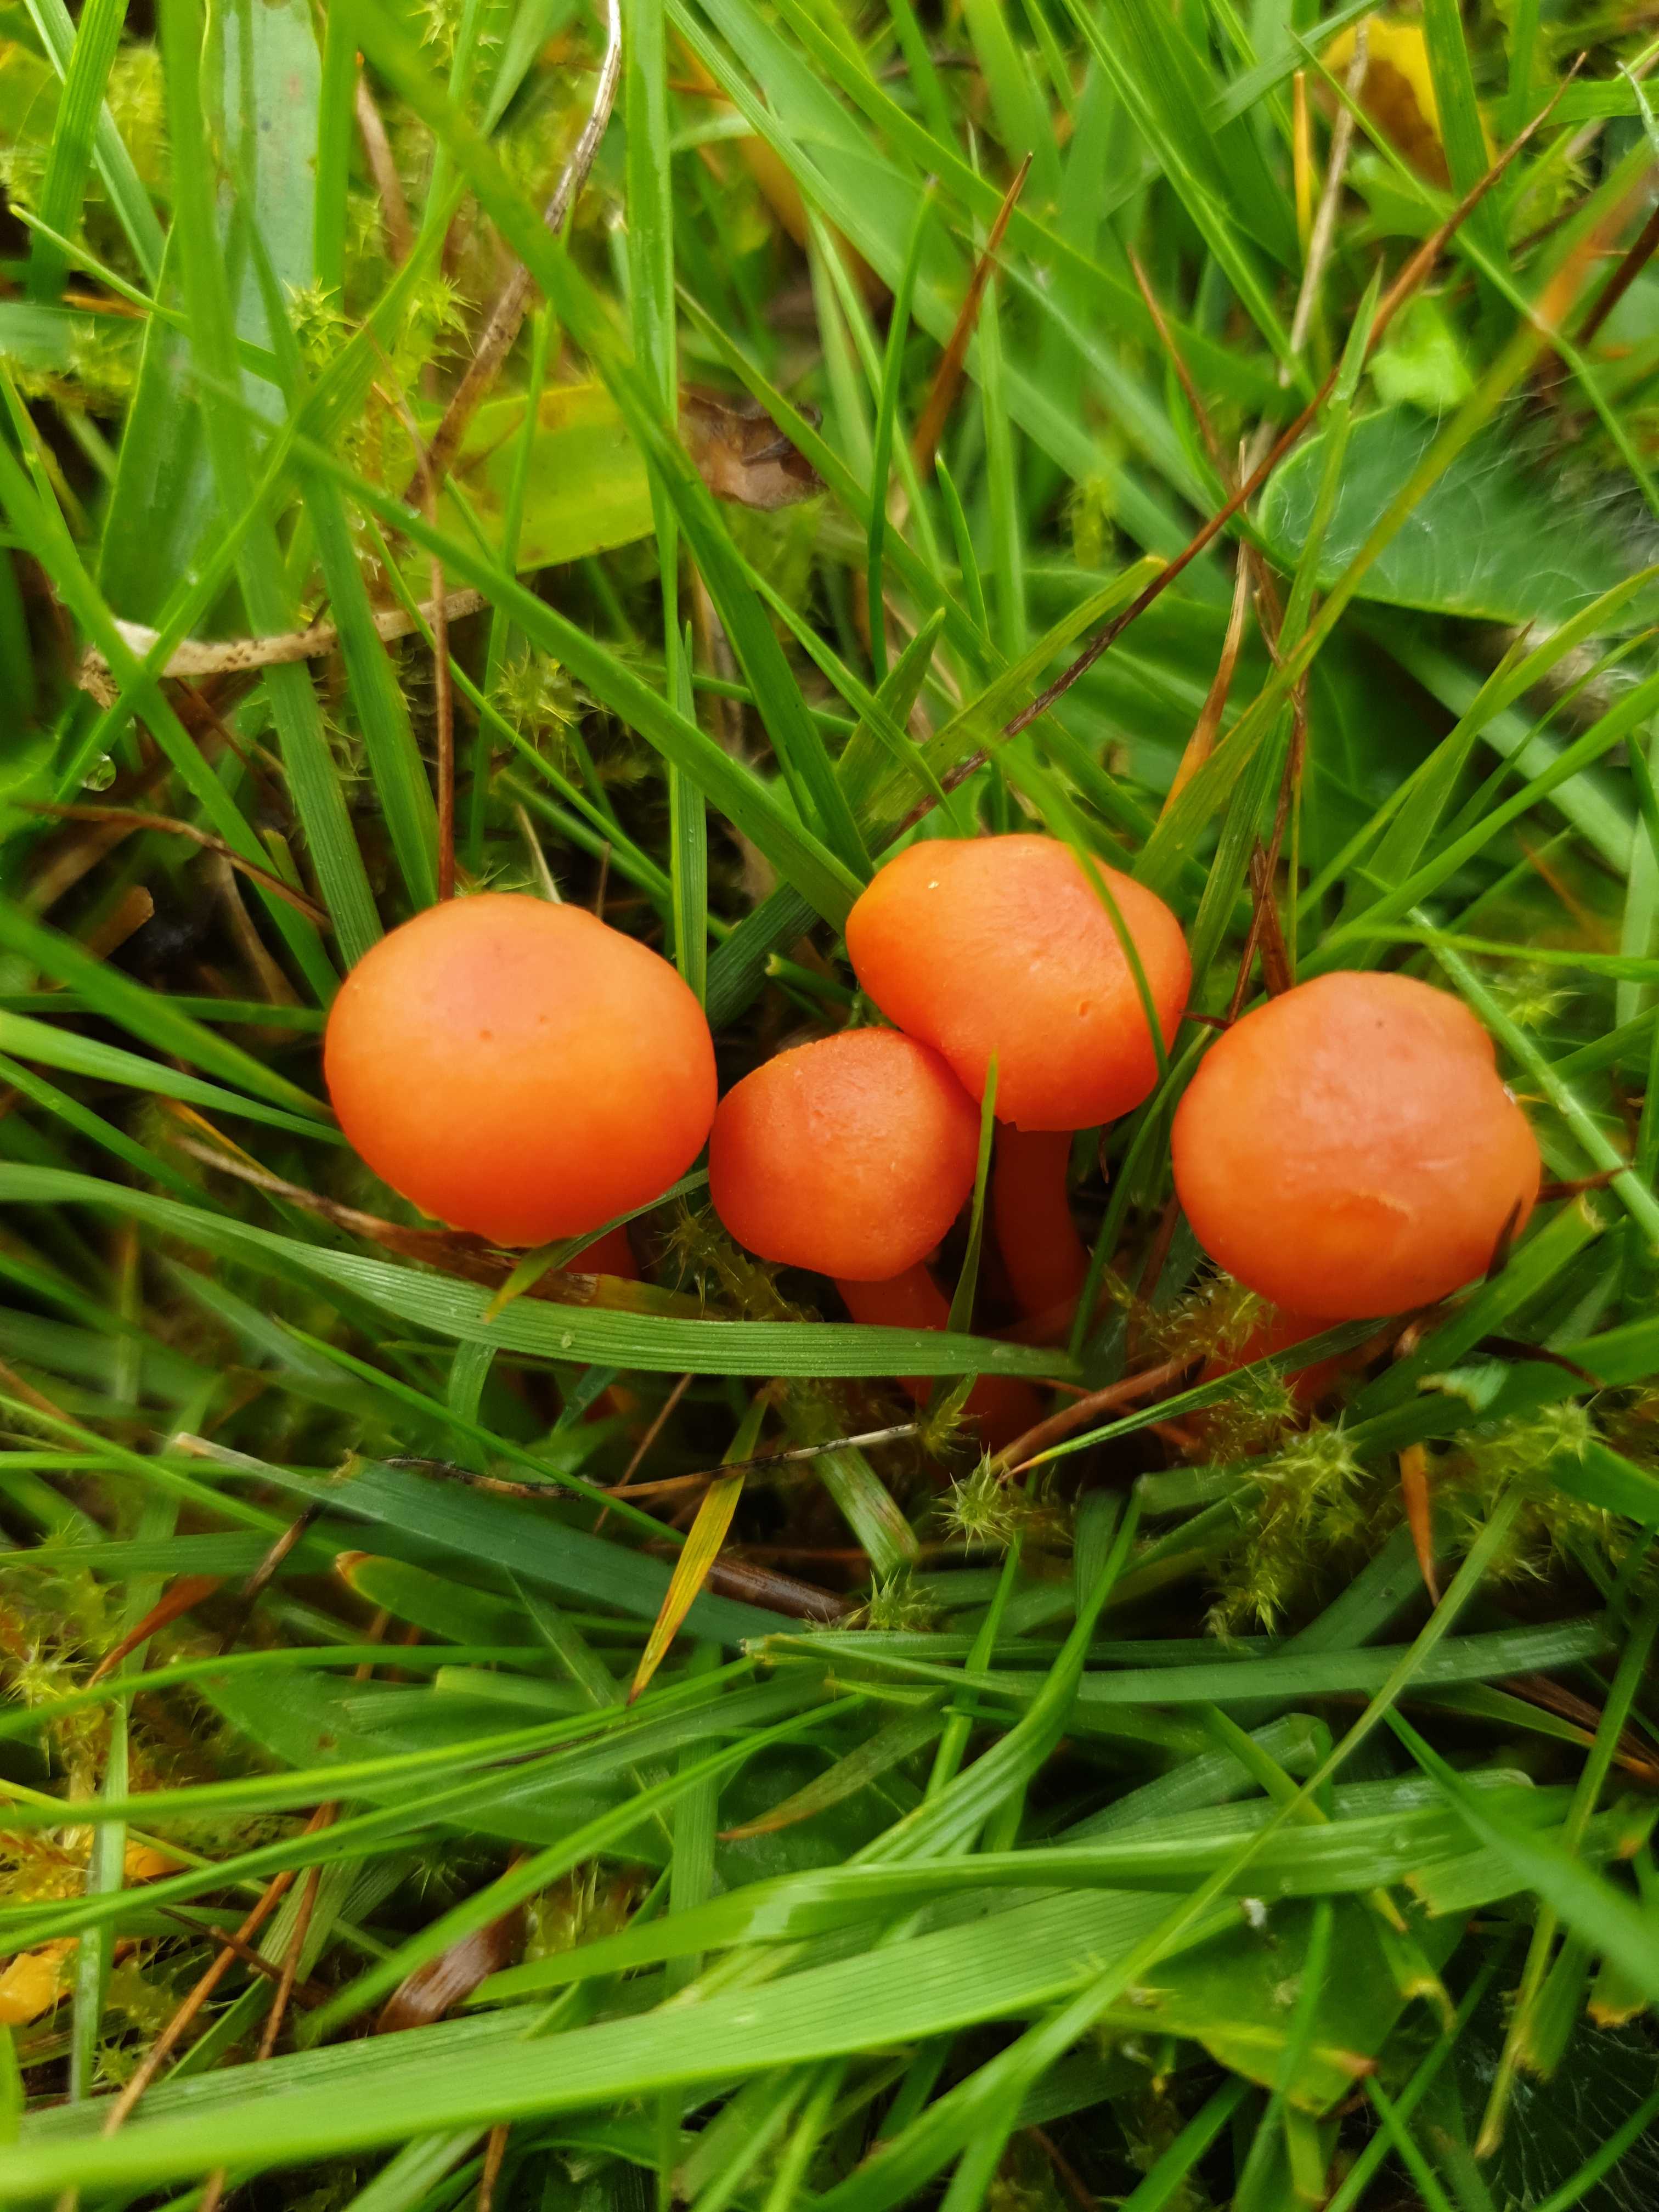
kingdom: Fungi
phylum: Basidiomycota
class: Agaricomycetes
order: Agaricales
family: Hygrophoraceae
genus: Hygrocybe
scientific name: Hygrocybe miniata
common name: mønje-vokshat
